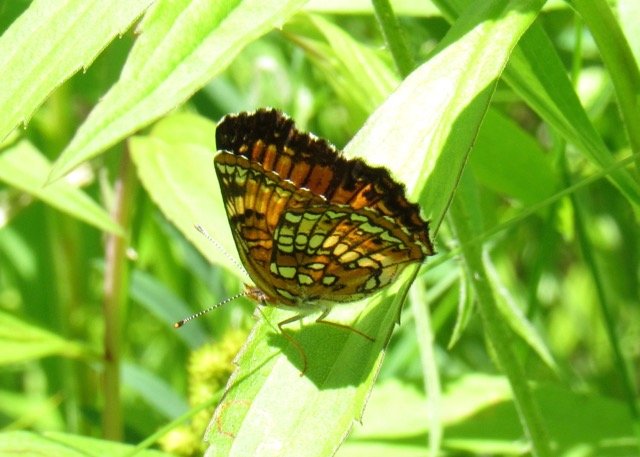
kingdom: Animalia
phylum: Arthropoda
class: Insecta
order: Lepidoptera
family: Nymphalidae
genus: Chlosyne
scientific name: Chlosyne harrisii
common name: Harris's Checkerspot
